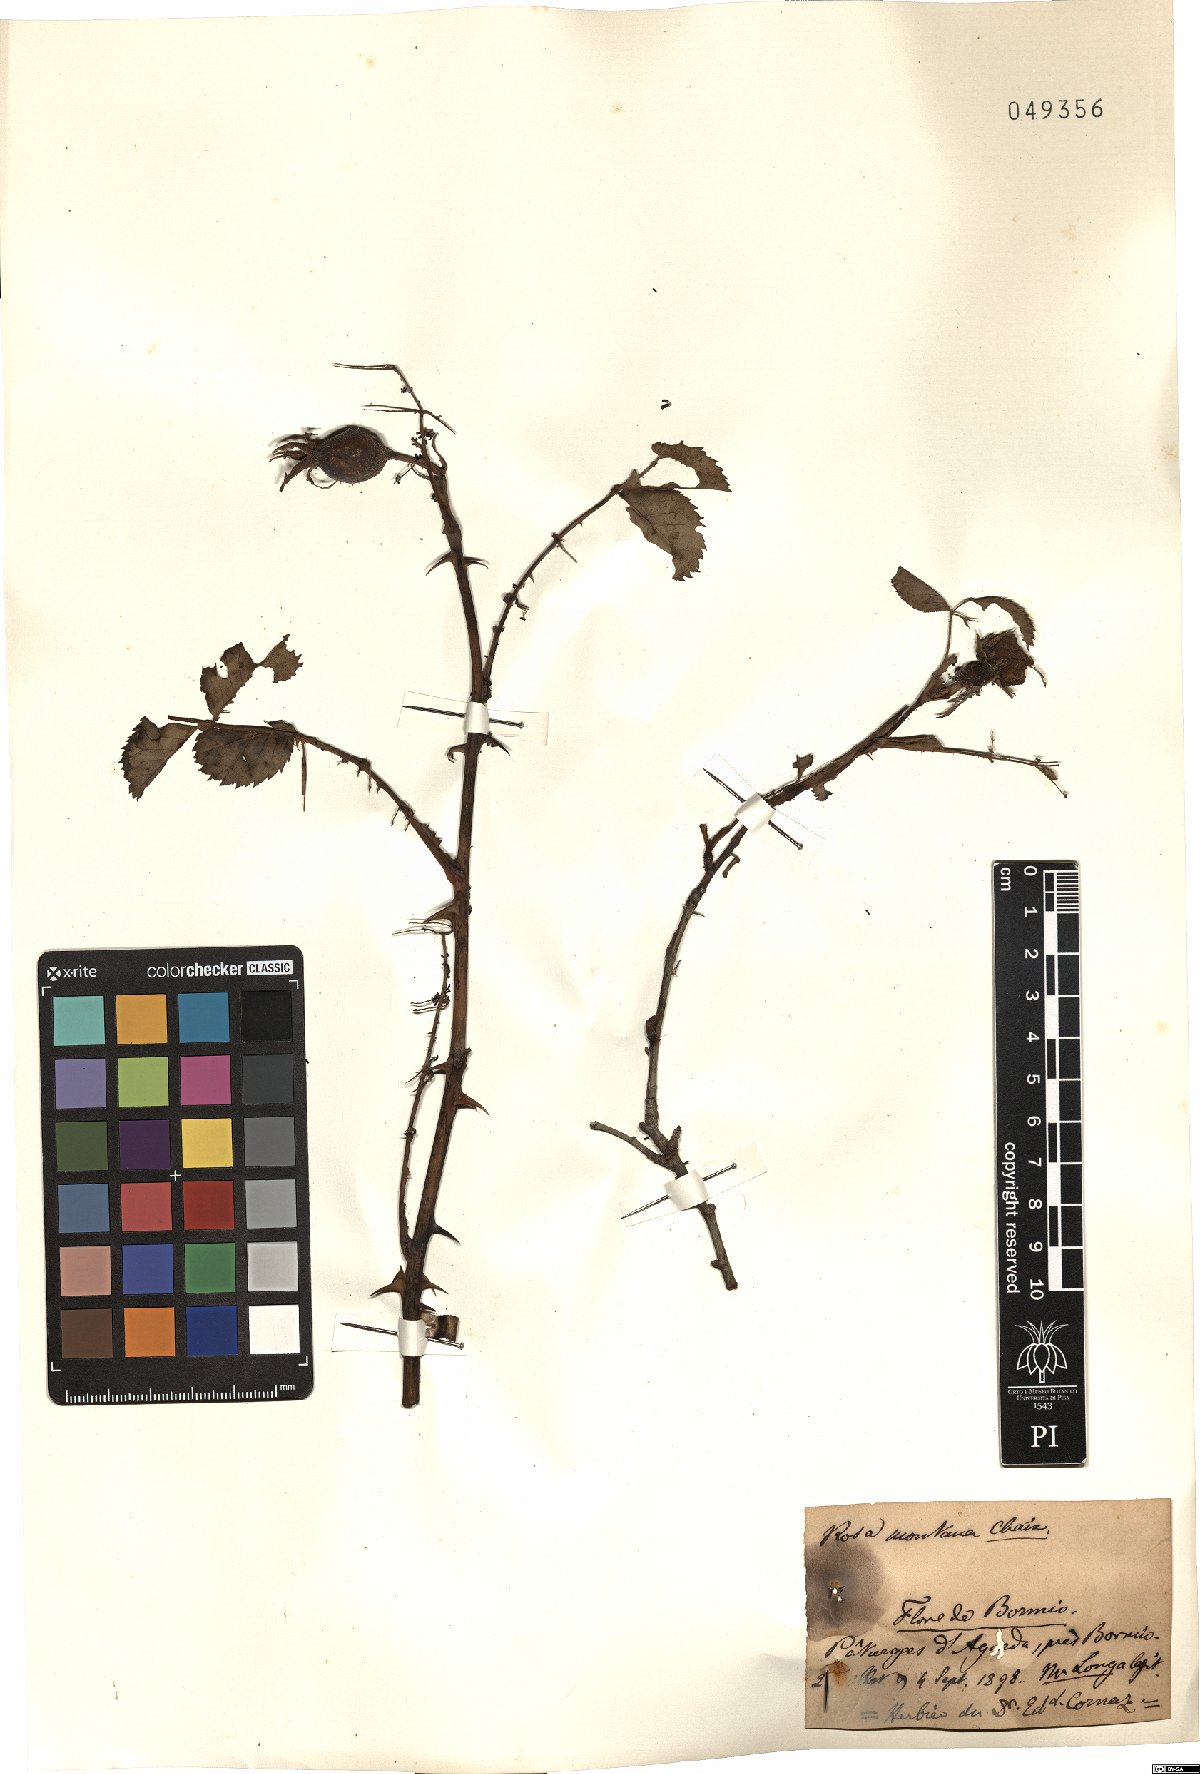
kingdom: Plantae
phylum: Tracheophyta
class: Magnoliopsida
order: Rosales
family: Rosaceae
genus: Rosa
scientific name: Rosa montana
